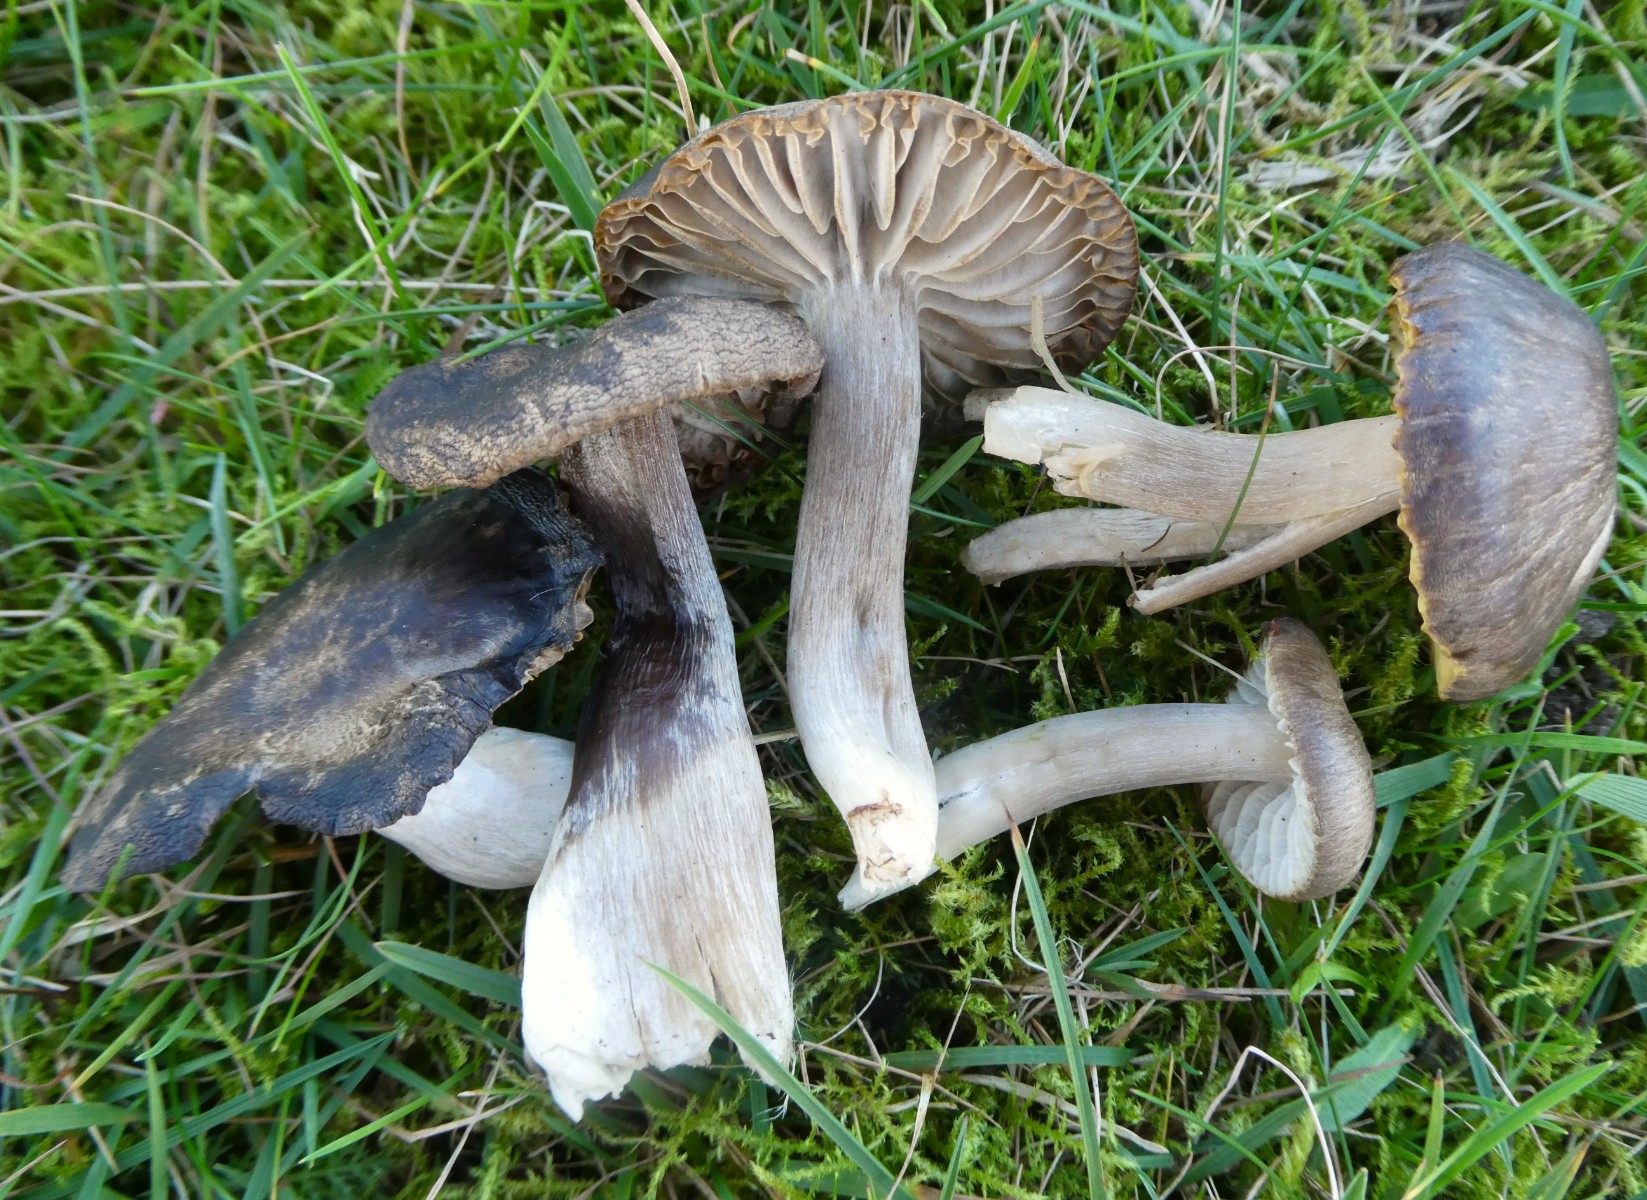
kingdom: Fungi
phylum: Basidiomycota
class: Agaricomycetes
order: Agaricales
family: Hygrophoraceae
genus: Neohygrocybe
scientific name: Neohygrocybe nitrata
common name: stinkende vokshat
